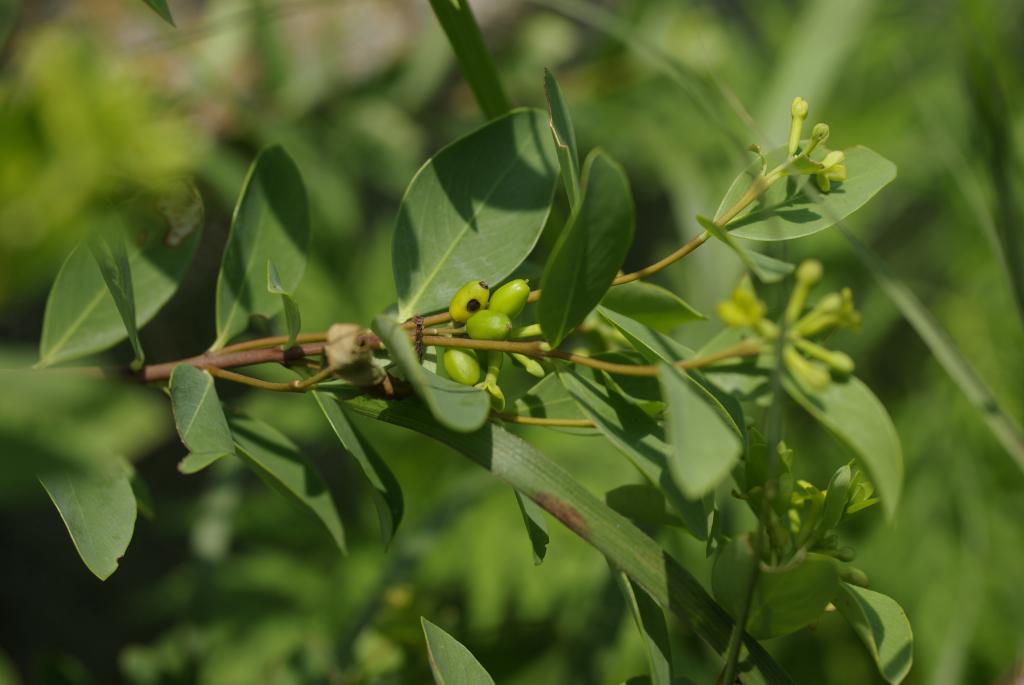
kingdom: Plantae
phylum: Tracheophyta
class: Magnoliopsida
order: Malvales
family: Thymelaeaceae
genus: Wikstroemia
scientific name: Wikstroemia indica
